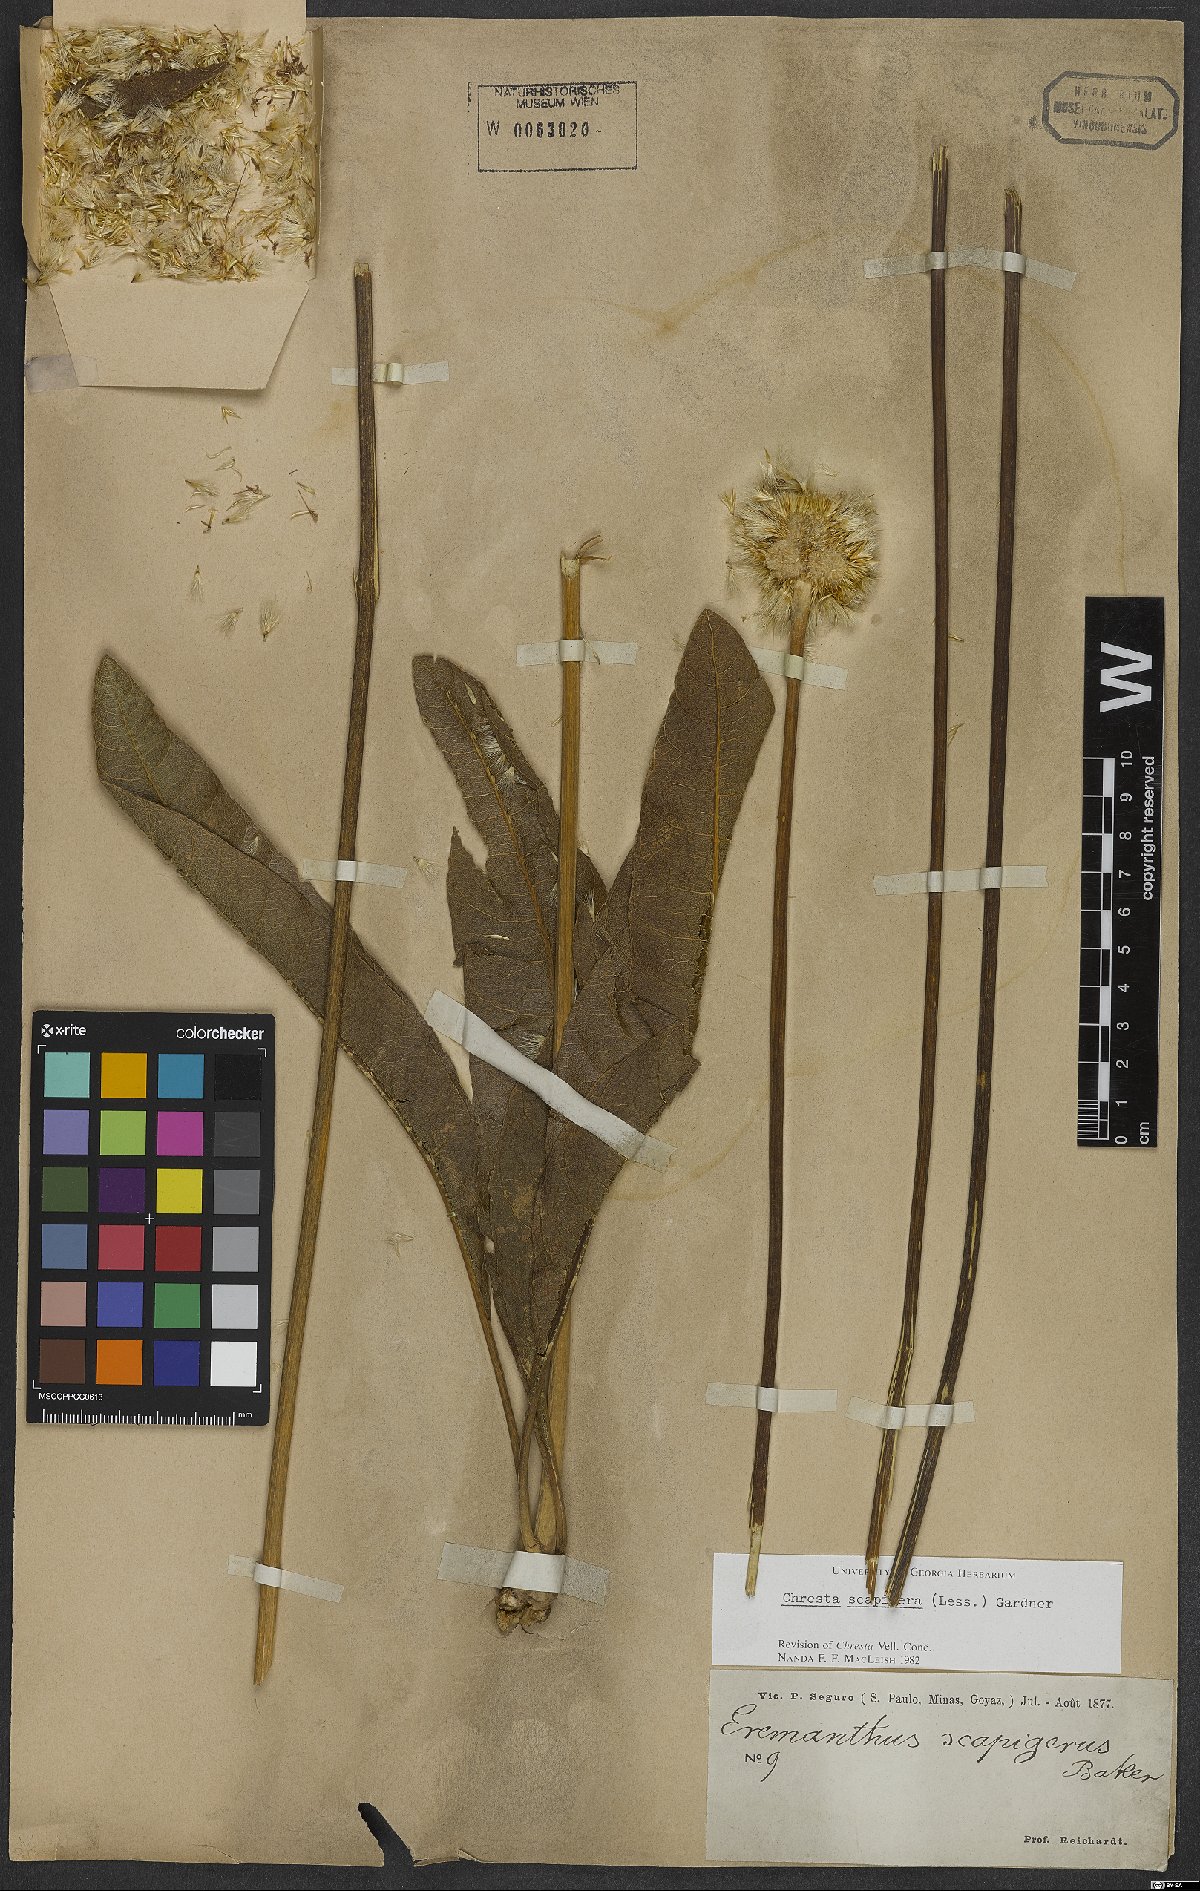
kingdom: Plantae
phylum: Tracheophyta
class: Magnoliopsida
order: Asterales
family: Asteraceae
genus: Chresta
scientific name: Chresta scapigera
